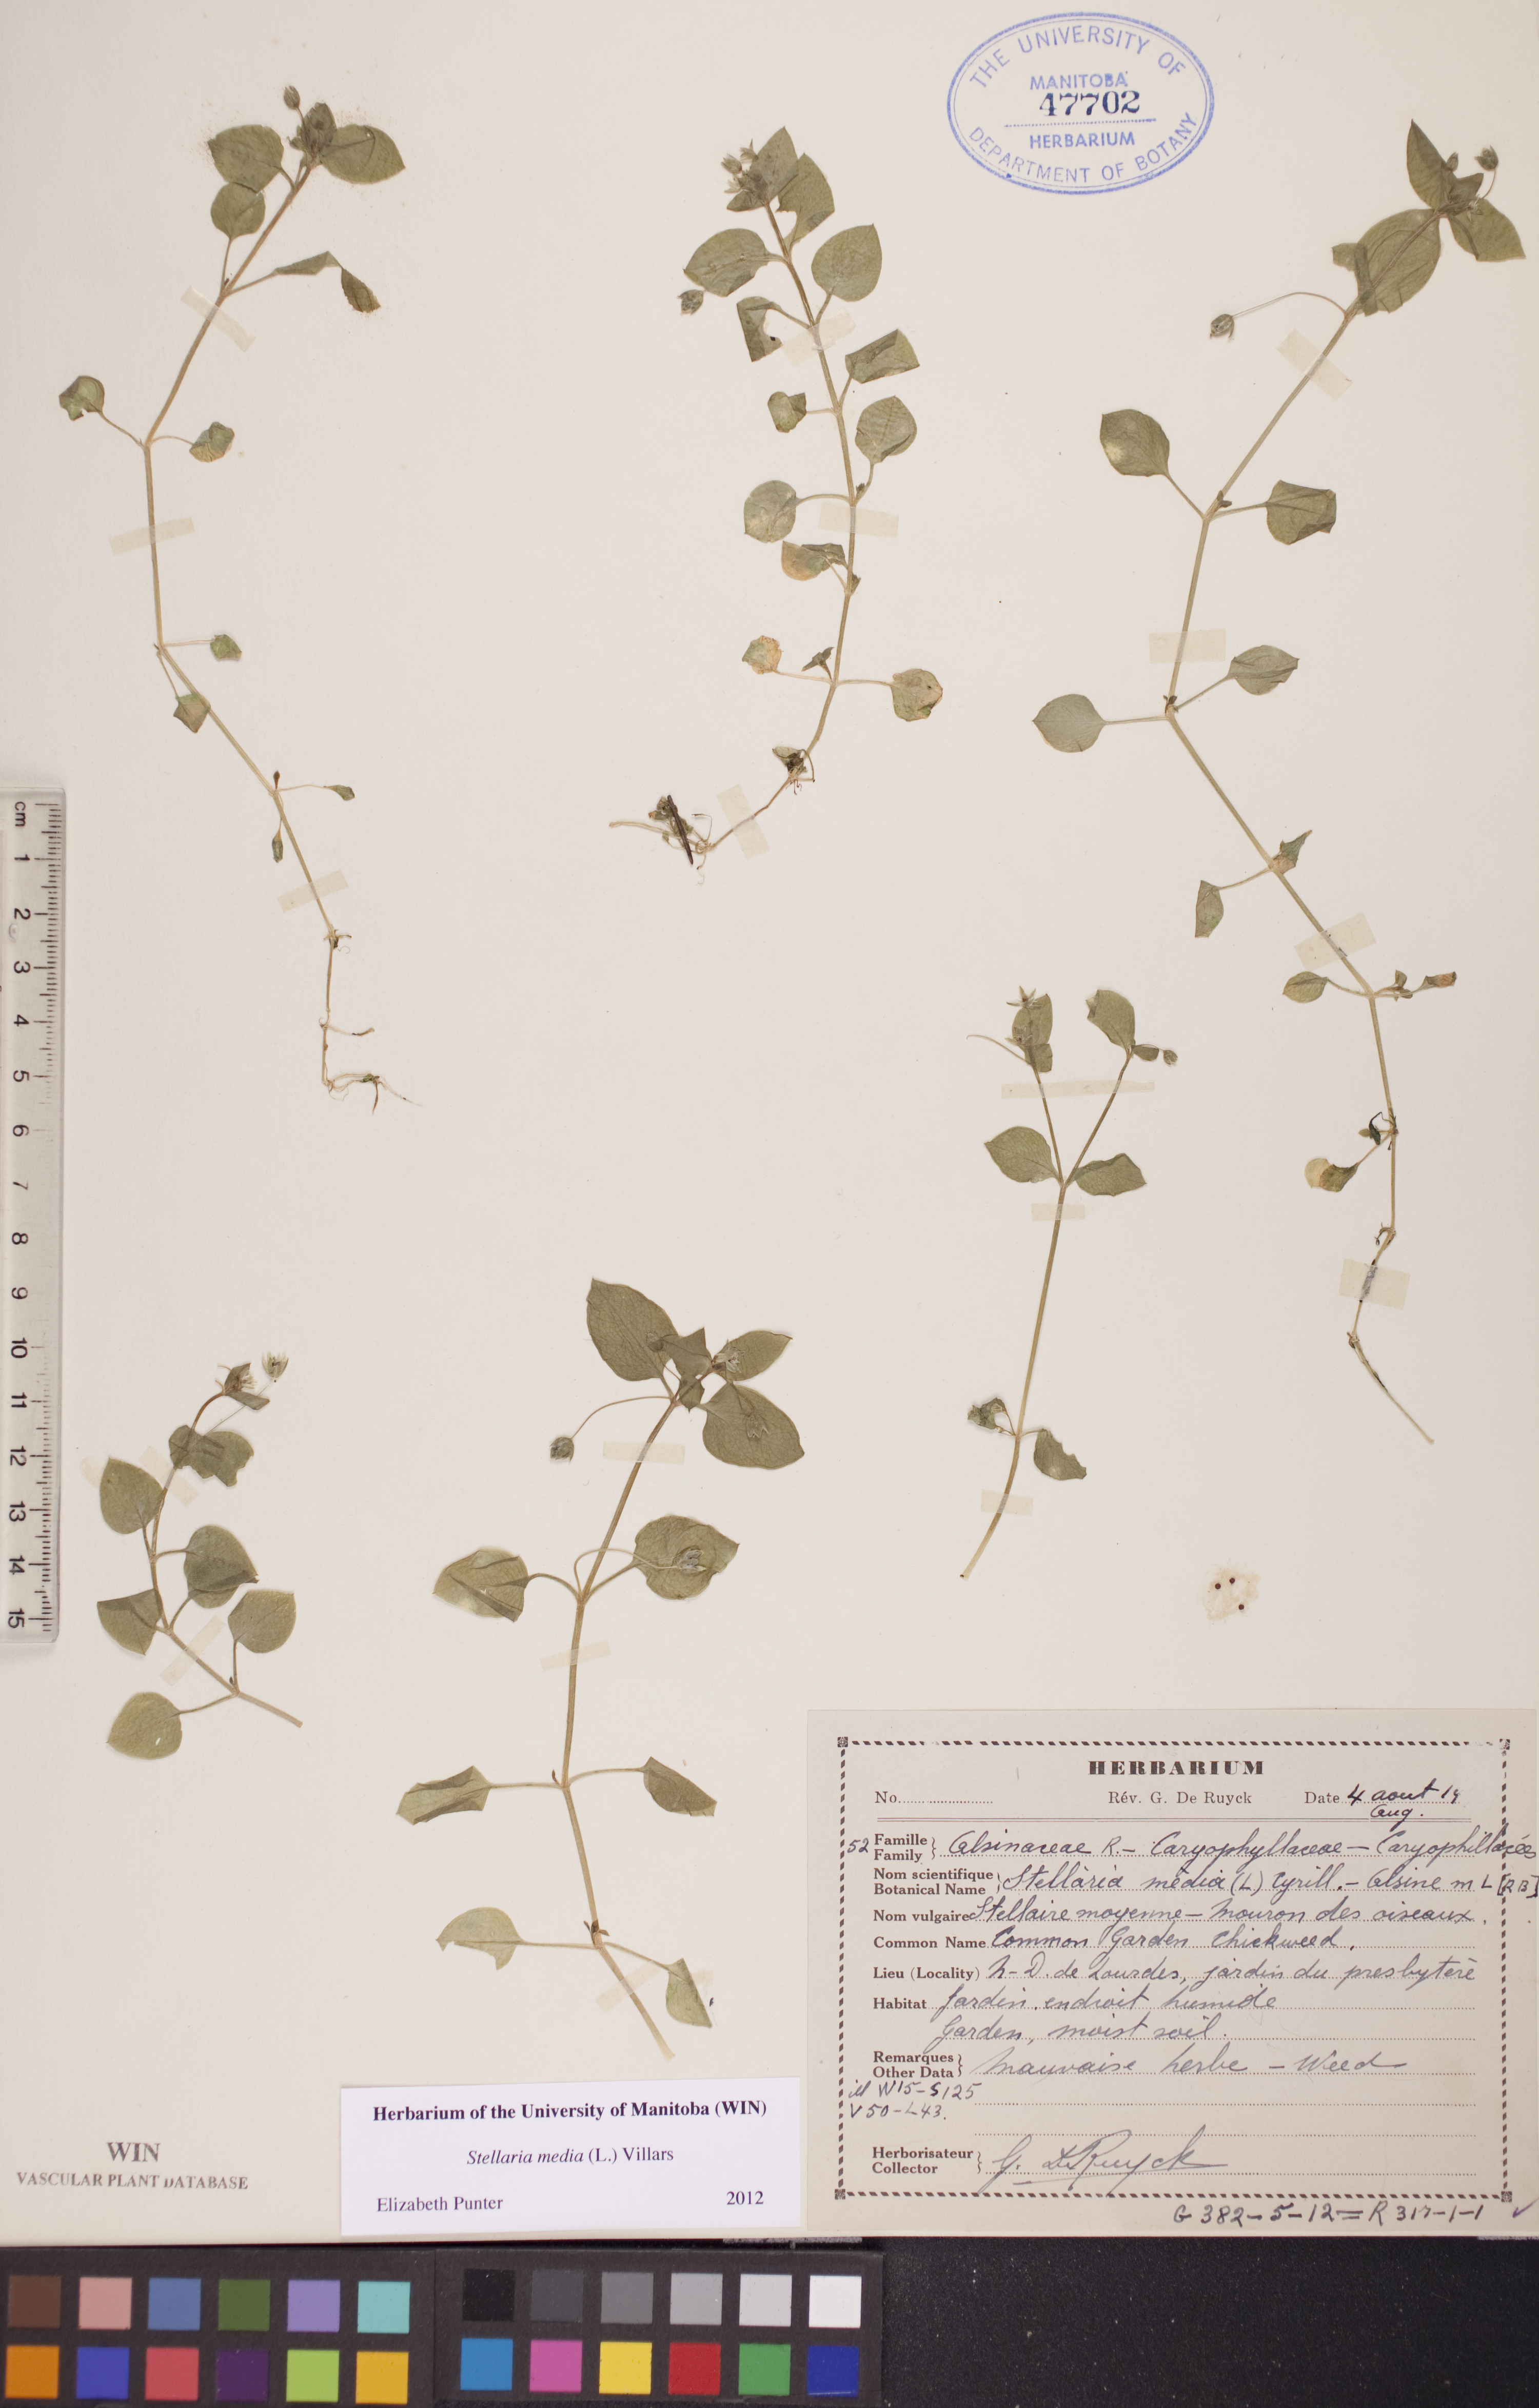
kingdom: Plantae
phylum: Tracheophyta
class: Magnoliopsida
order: Caryophyllales
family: Caryophyllaceae
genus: Stellaria
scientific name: Stellaria media
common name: Common chickweed
